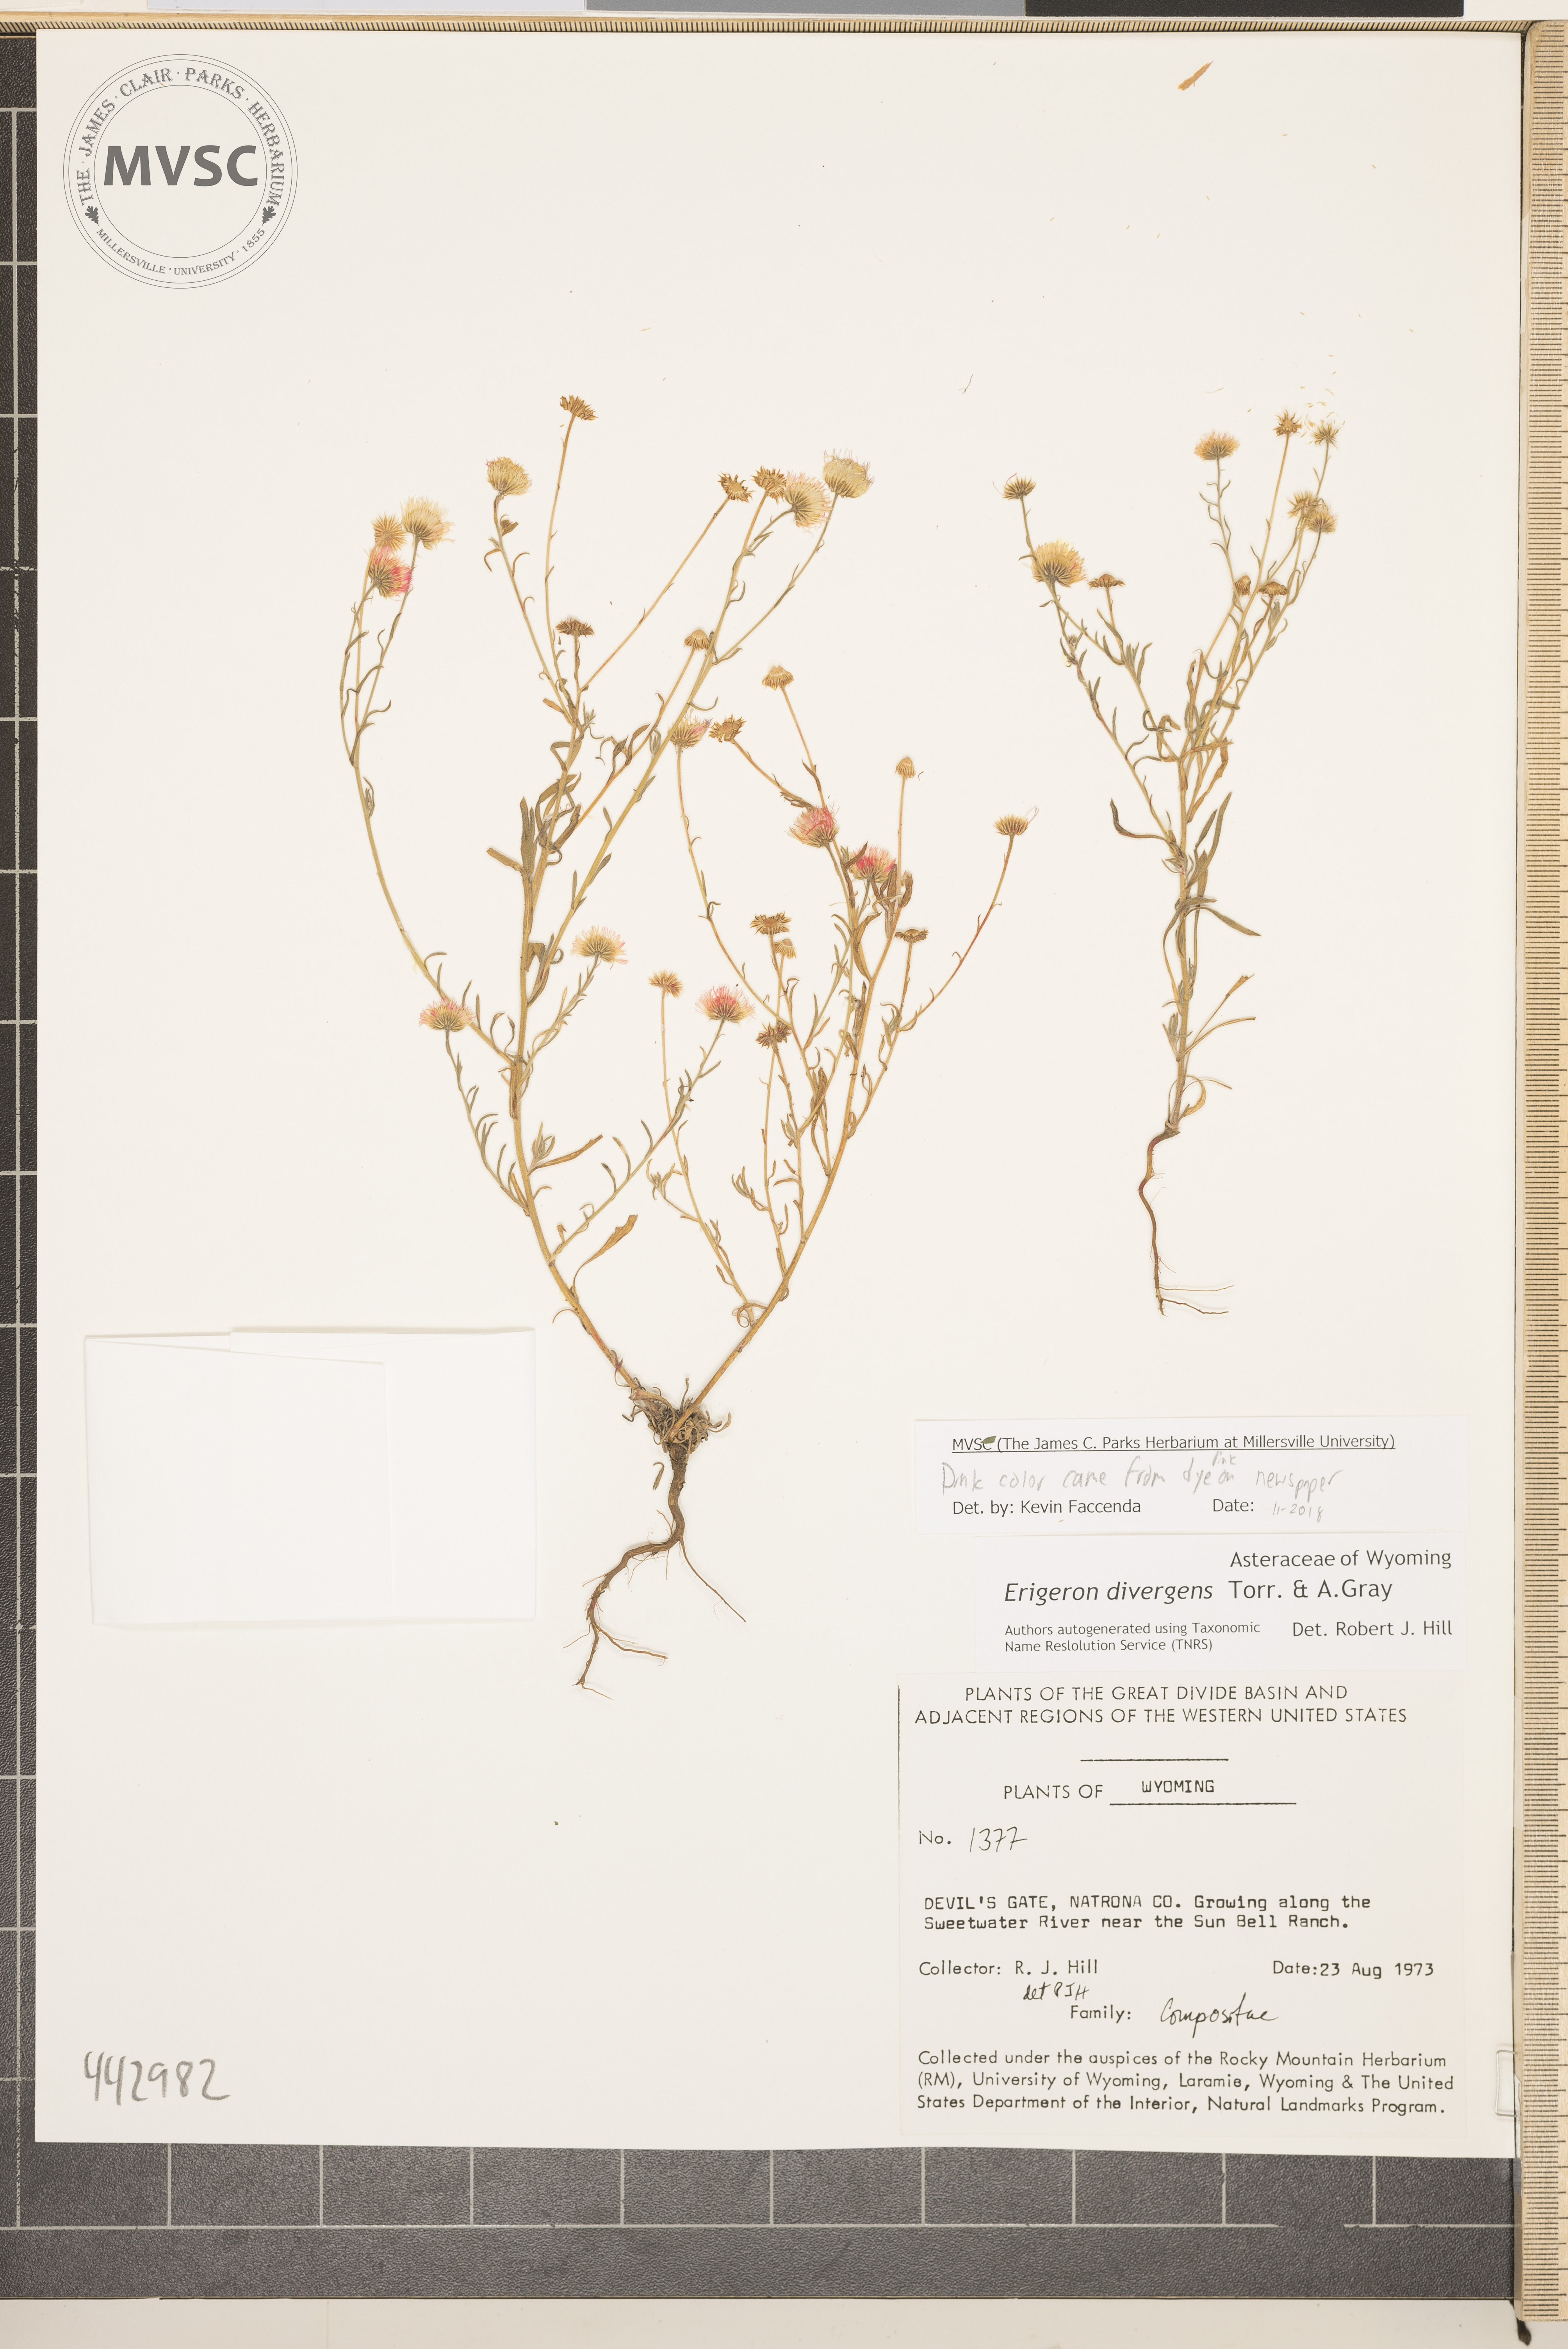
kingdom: Plantae
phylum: Tracheophyta
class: Magnoliopsida
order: Asterales
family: Asteraceae
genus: Erigeron
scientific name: Erigeron divergens
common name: Diffuse fleabane
